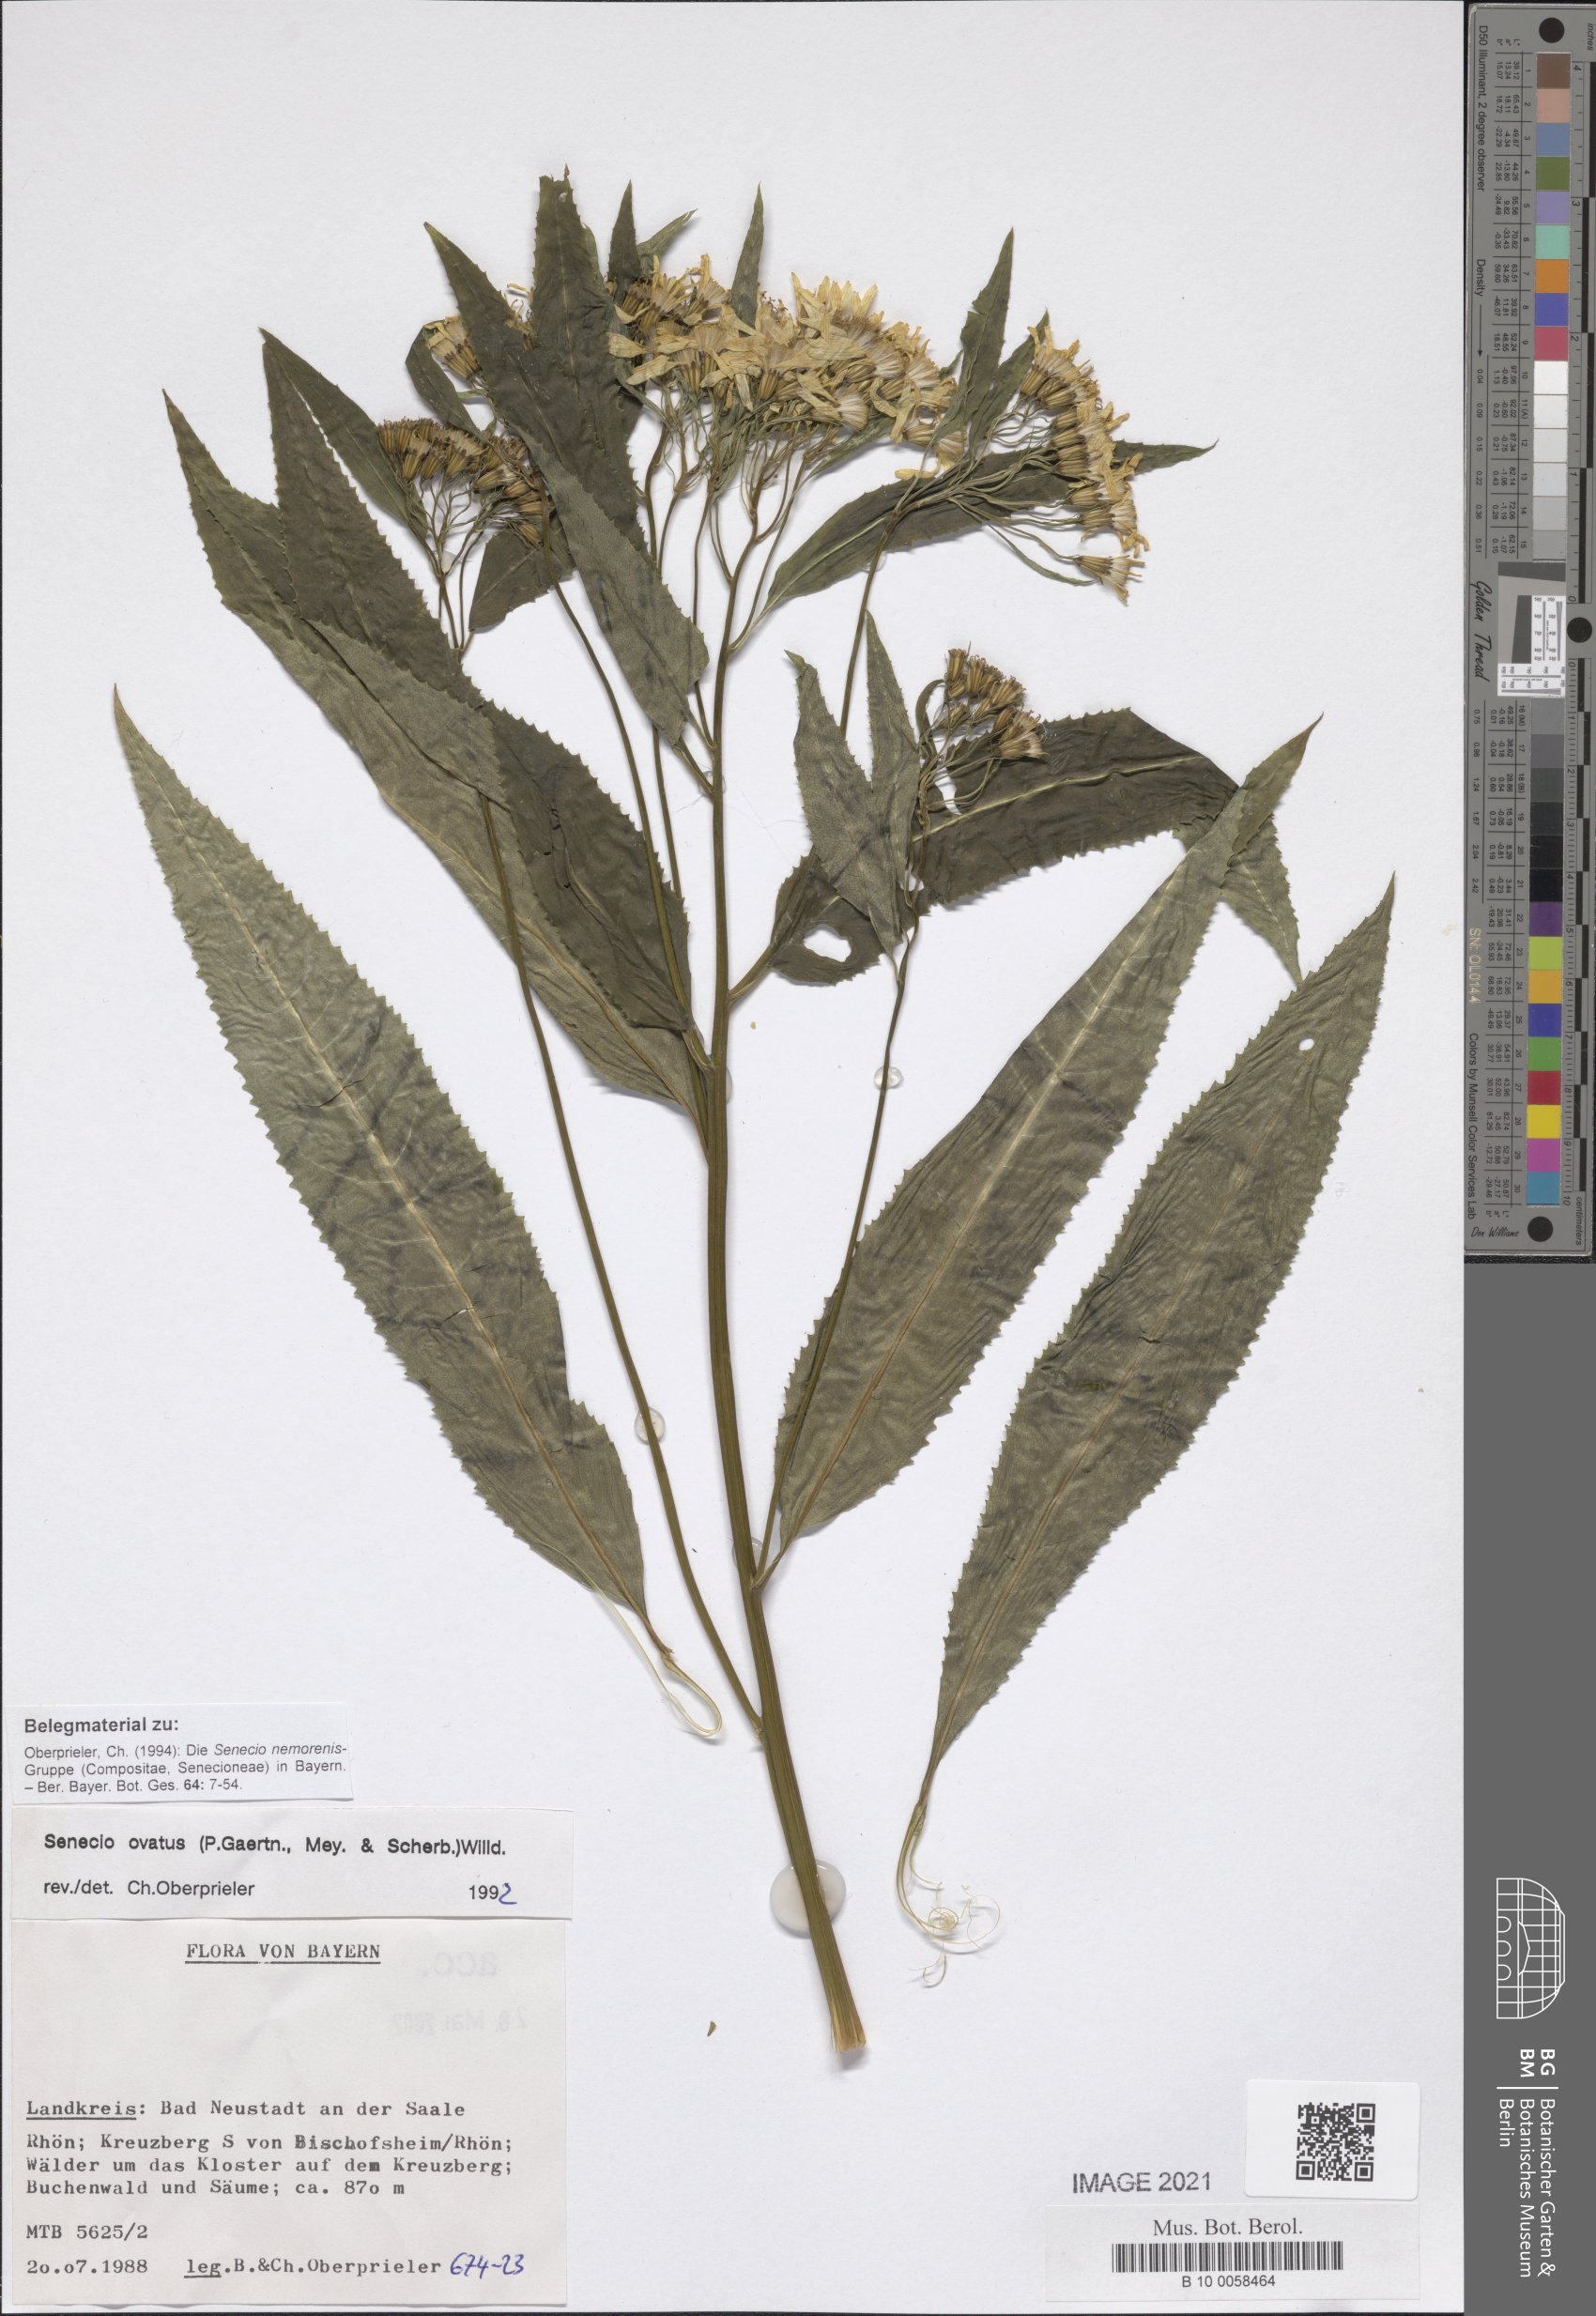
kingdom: Plantae
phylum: Tracheophyta
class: Magnoliopsida
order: Asterales
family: Asteraceae
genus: Senecio
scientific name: Senecio ovatus
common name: Wood ragwort
